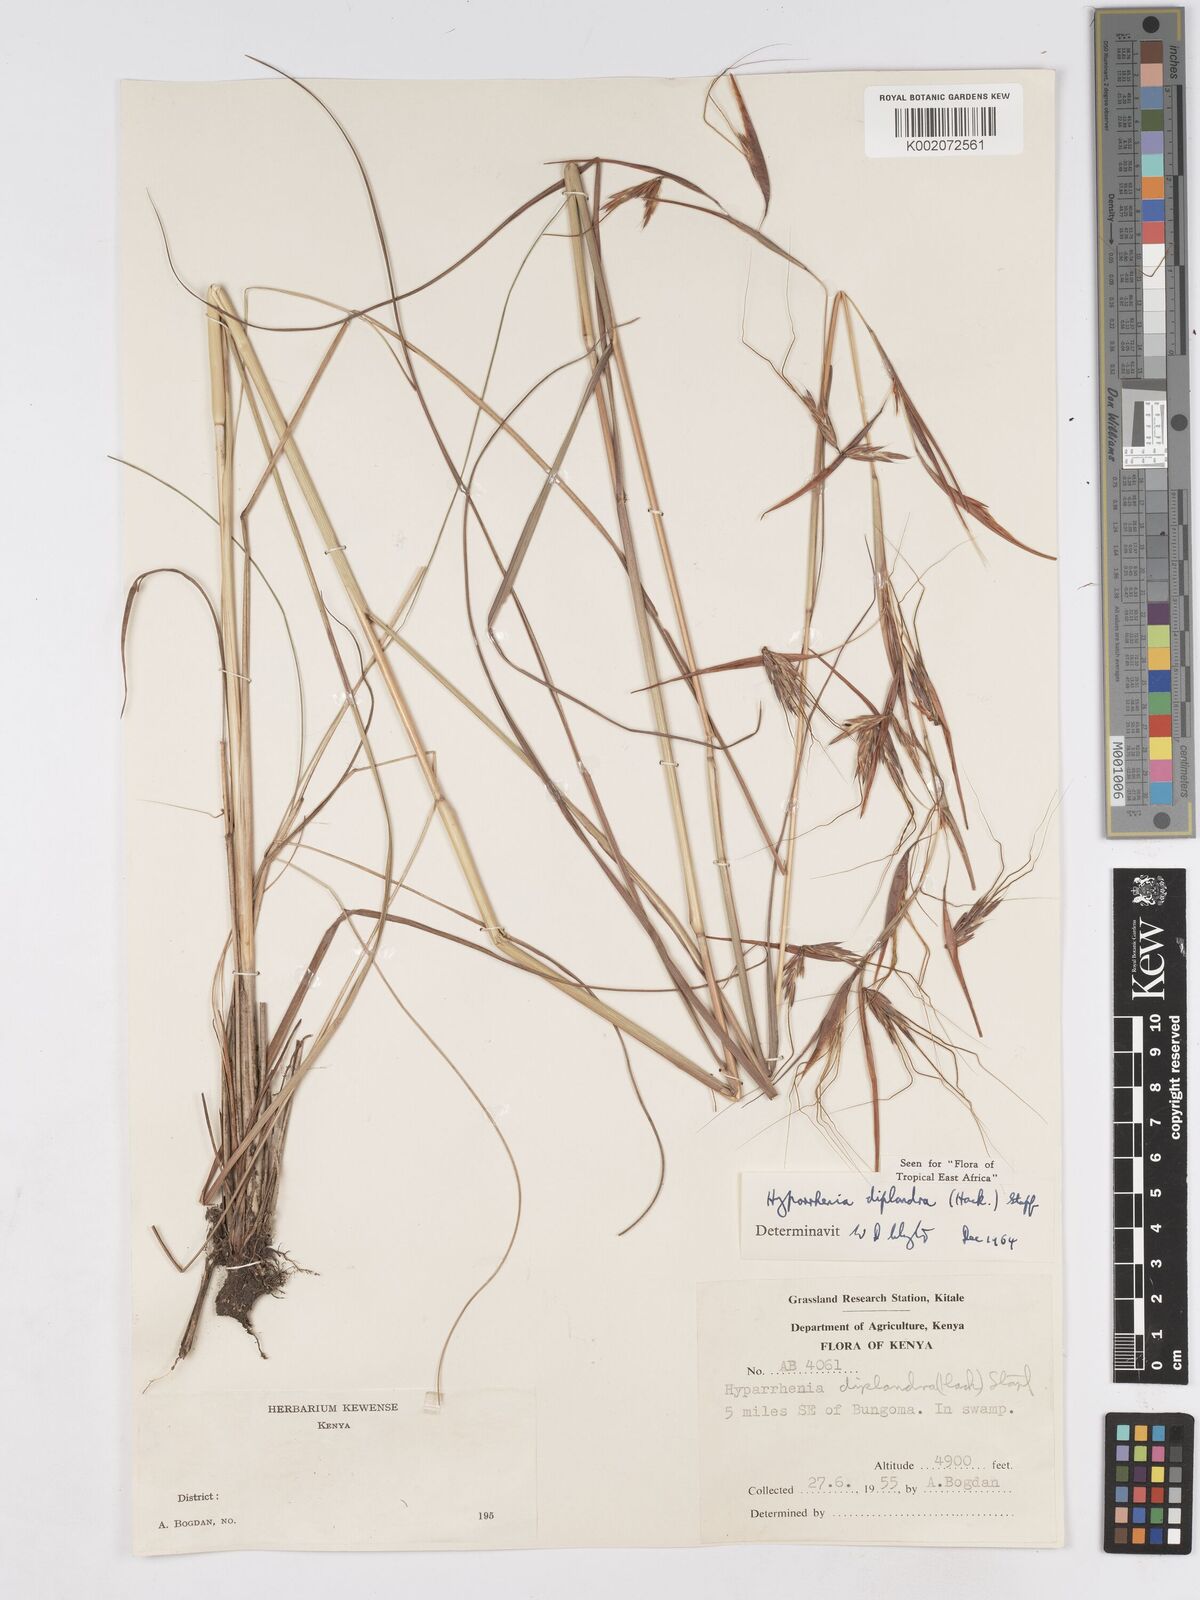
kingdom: Plantae
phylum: Tracheophyta
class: Liliopsida
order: Poales
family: Poaceae
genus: Hyparrhenia
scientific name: Hyparrhenia diplandra
